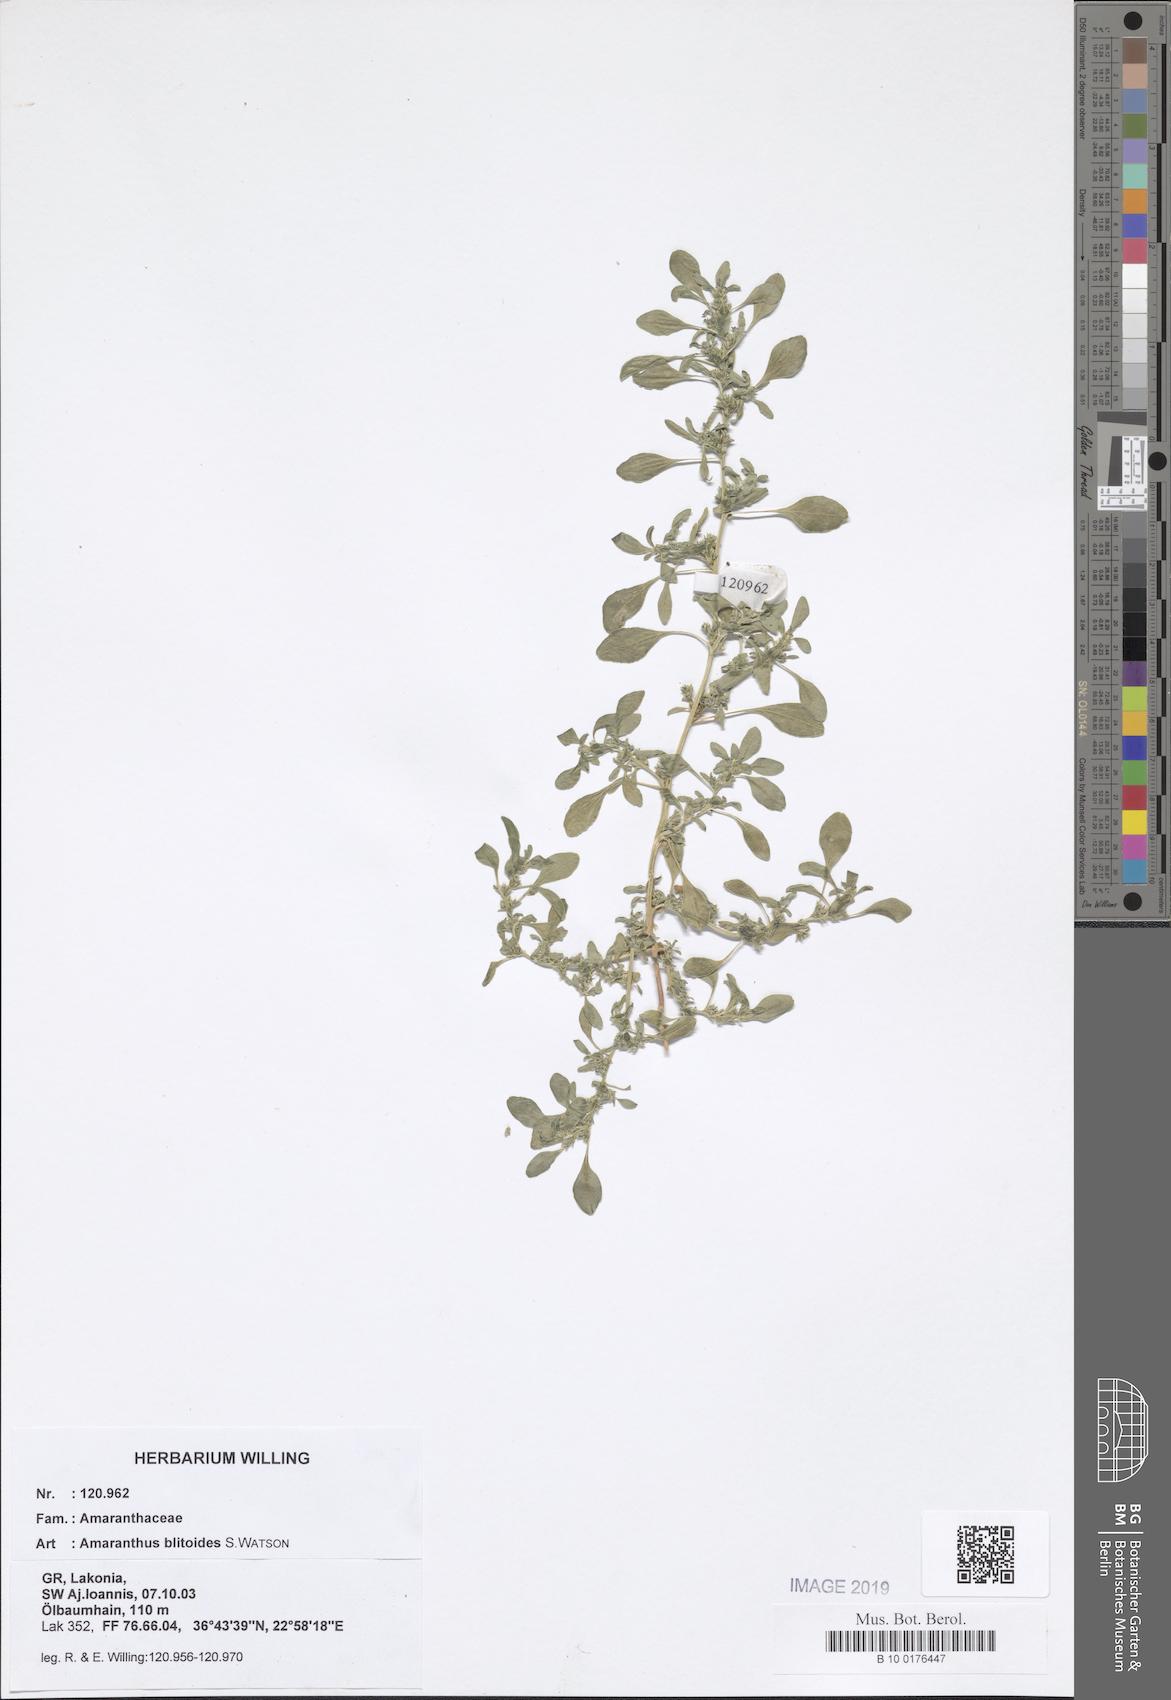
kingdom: Plantae
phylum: Tracheophyta
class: Magnoliopsida
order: Caryophyllales
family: Amaranthaceae
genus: Amaranthus
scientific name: Amaranthus blitoides
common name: Prostrate pigweed
